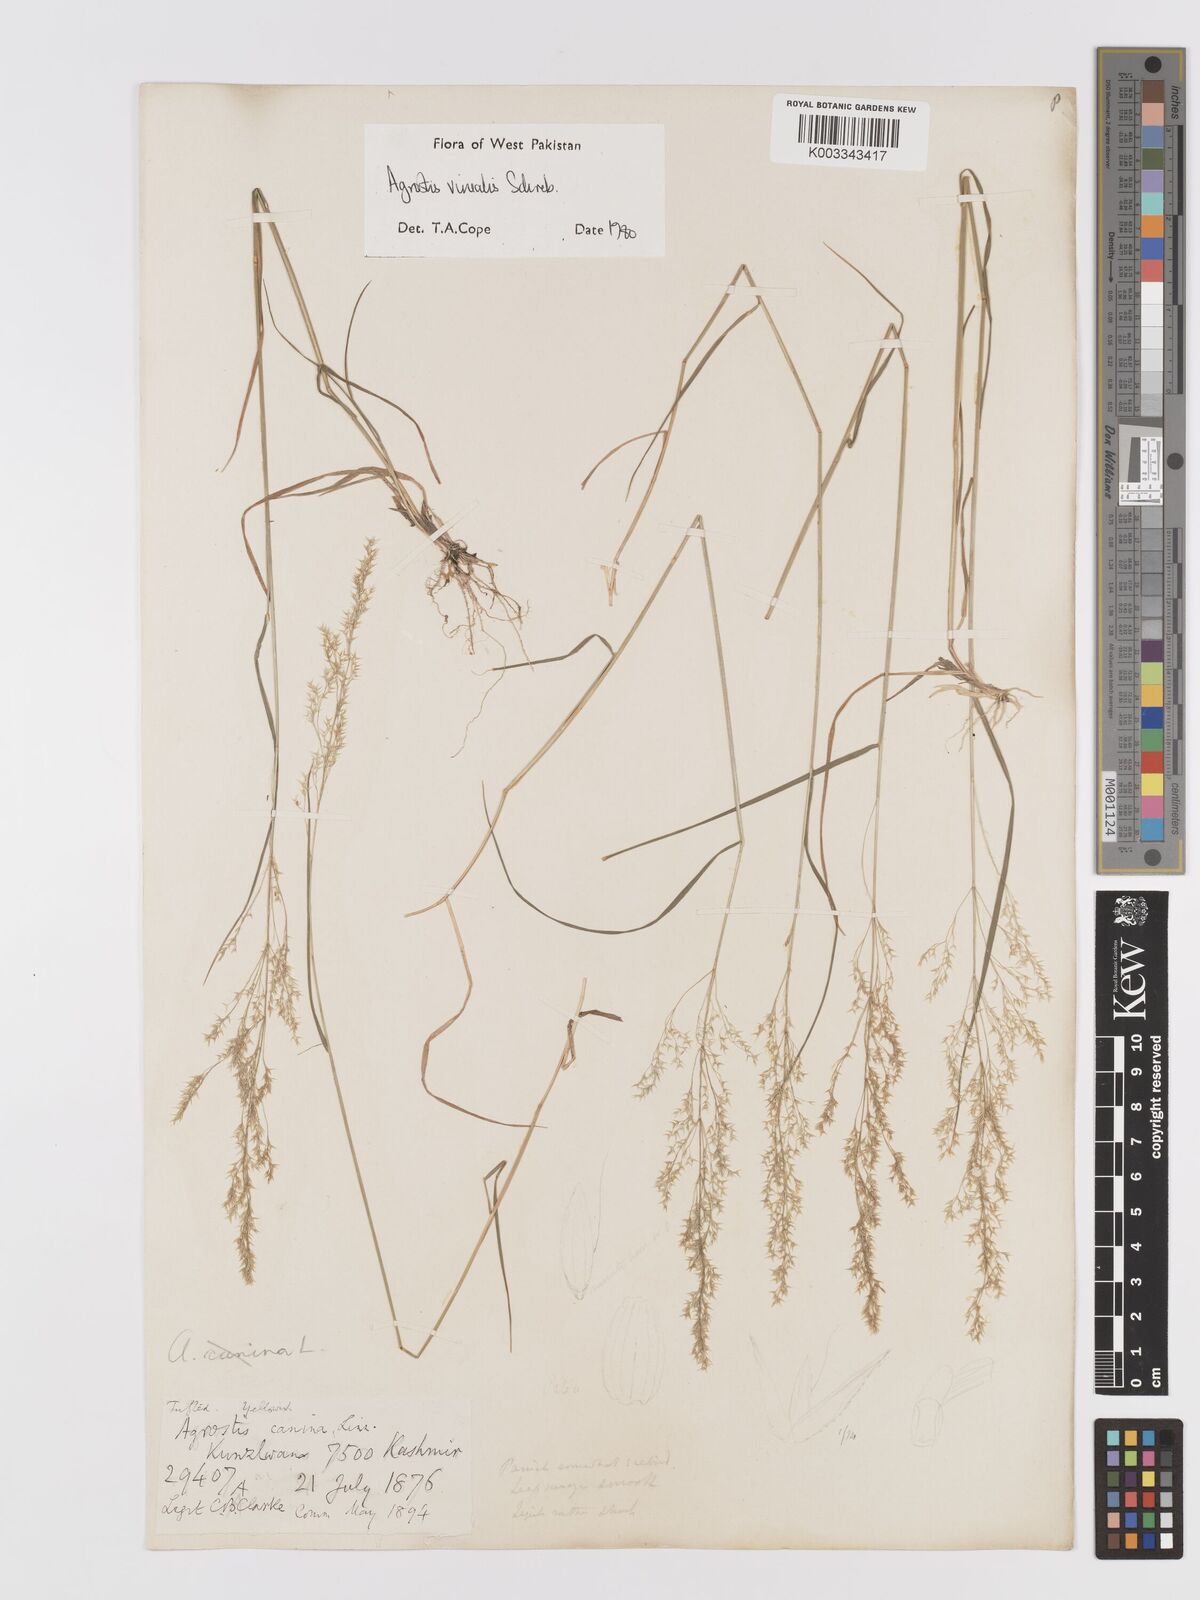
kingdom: Plantae
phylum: Tracheophyta
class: Liliopsida
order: Poales
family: Poaceae
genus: Agrostis
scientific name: Agrostis vinealis
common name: Brown bent
